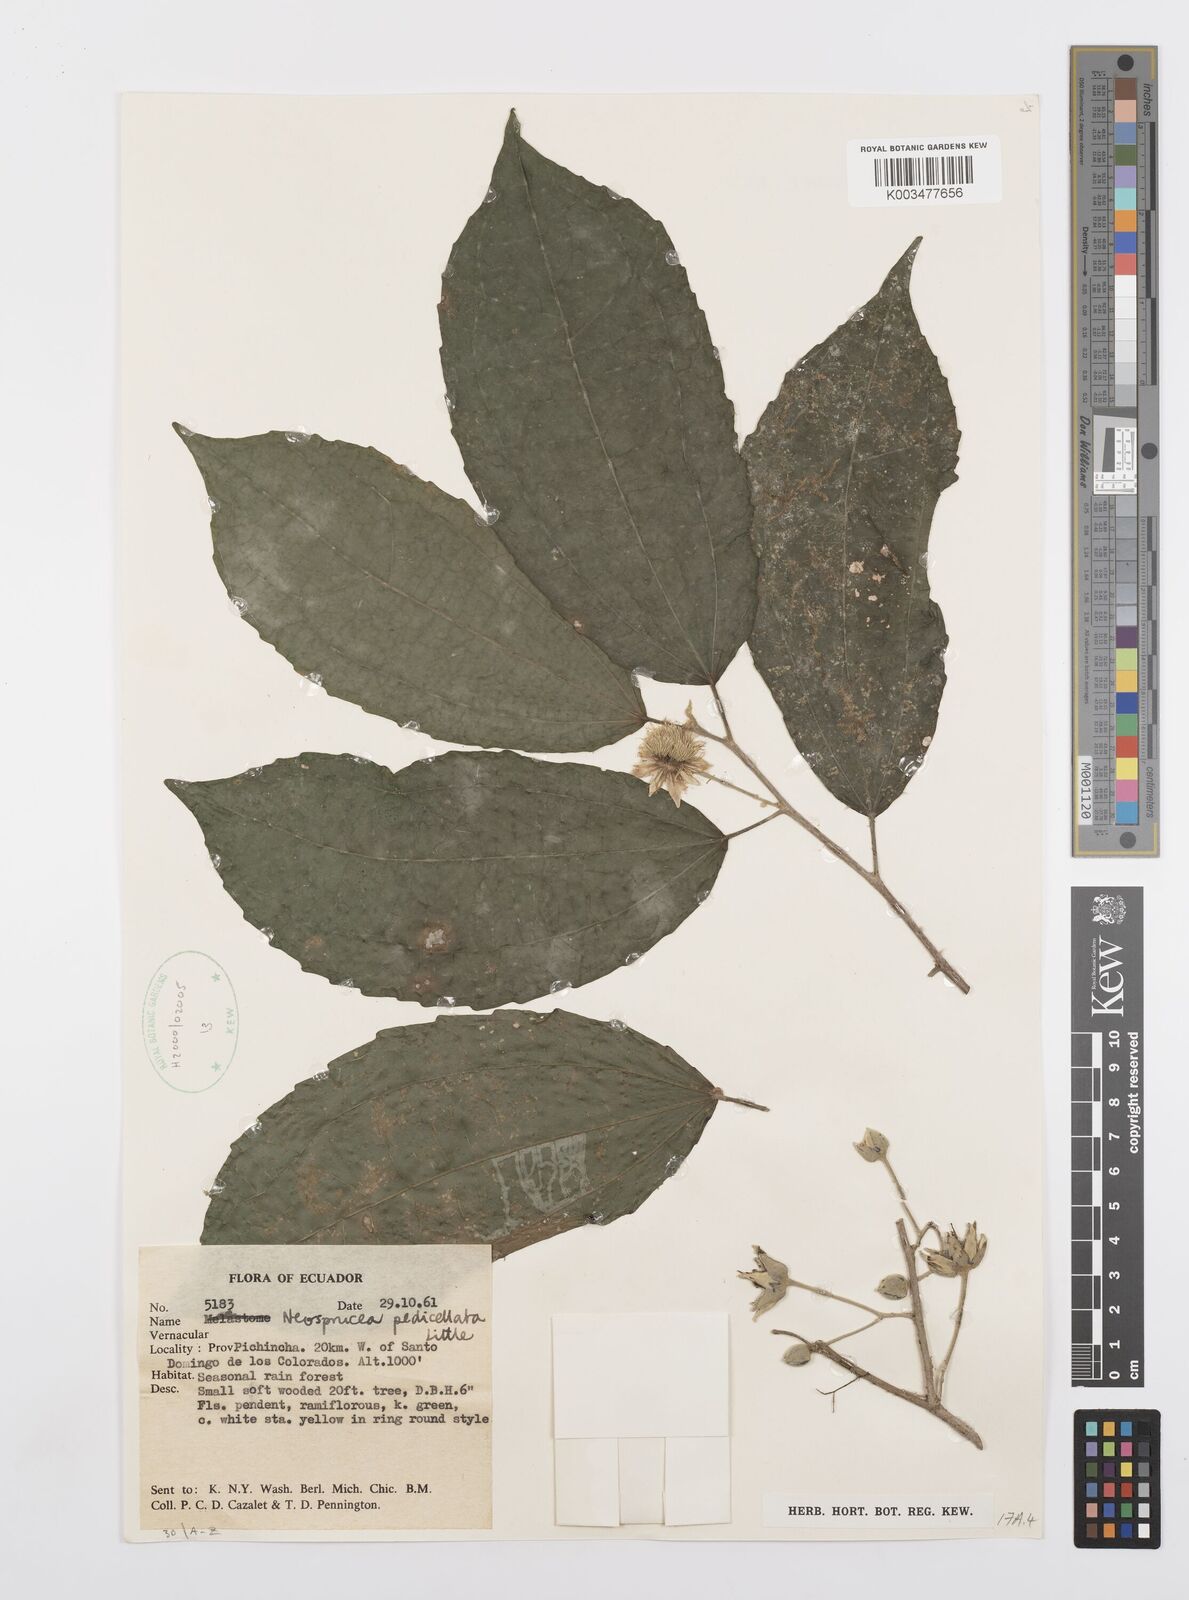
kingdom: Plantae
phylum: Tracheophyta
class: Magnoliopsida
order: Malpighiales
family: Salicaceae
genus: Neosprucea
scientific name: Neosprucea pedicellata
